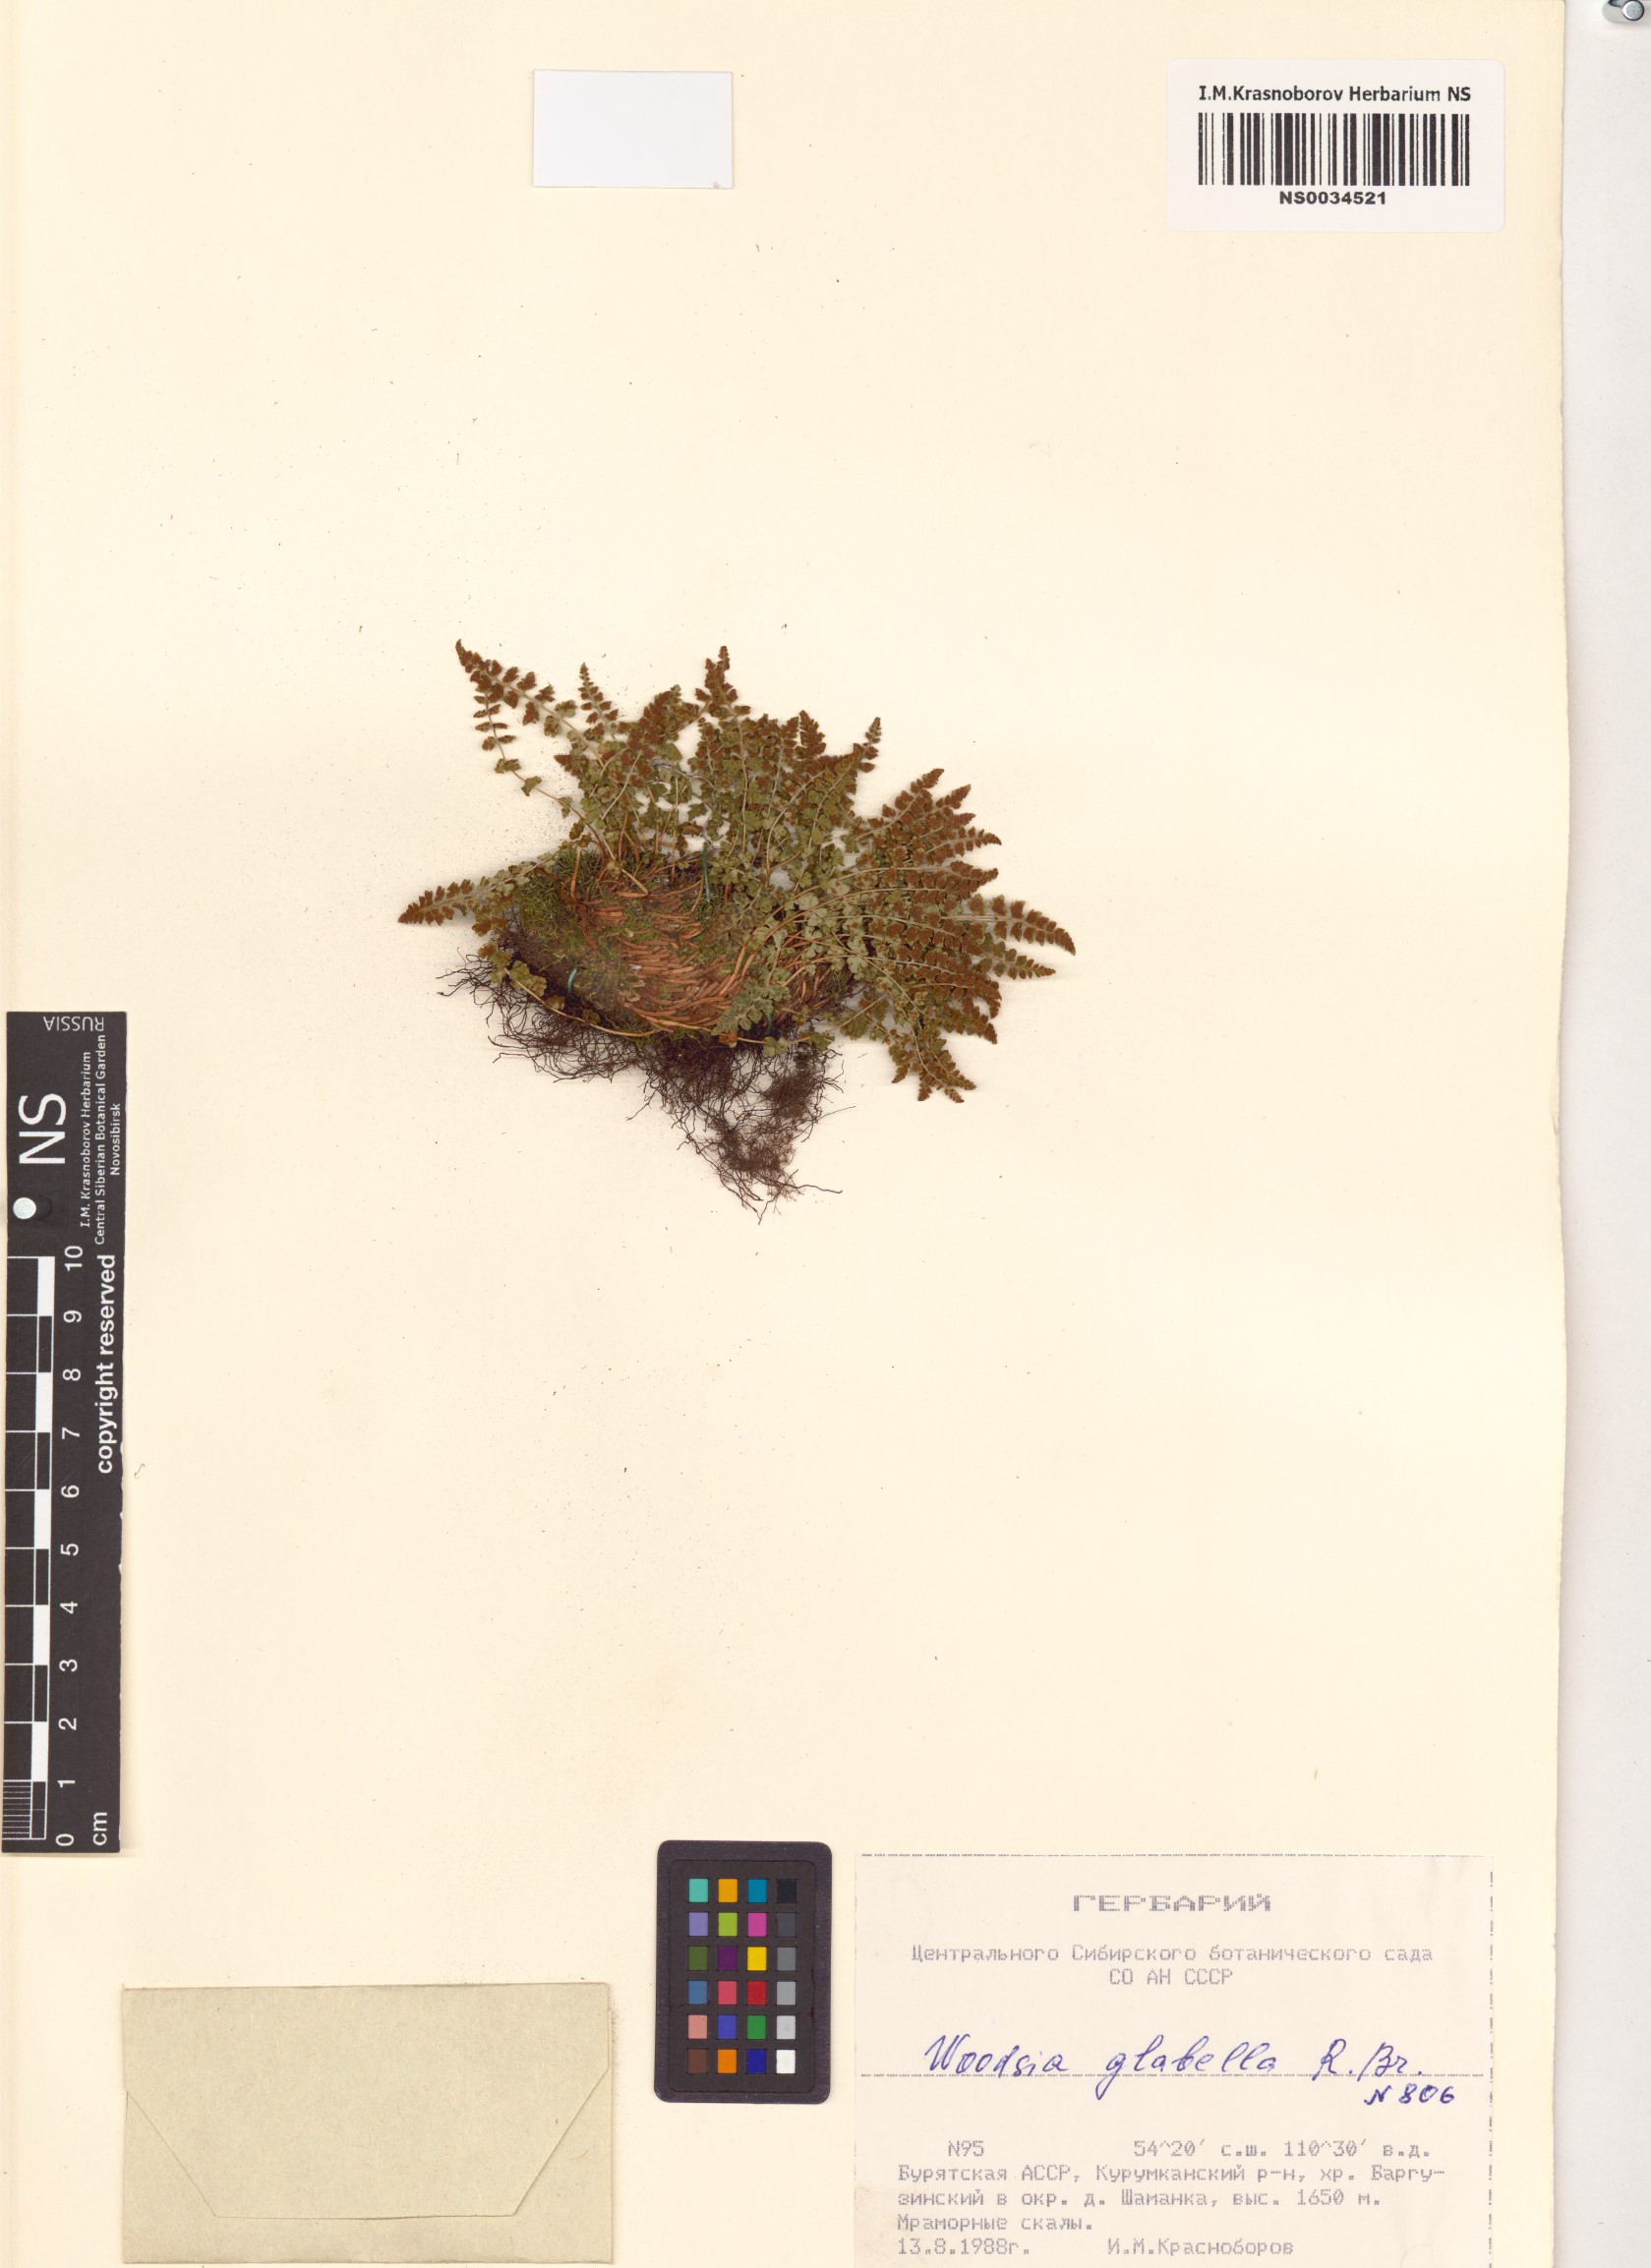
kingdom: Plantae
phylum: Tracheophyta
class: Polypodiopsida
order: Polypodiales
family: Woodsiaceae
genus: Woodsia
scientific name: Woodsia glabella
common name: Smooth woodsia
